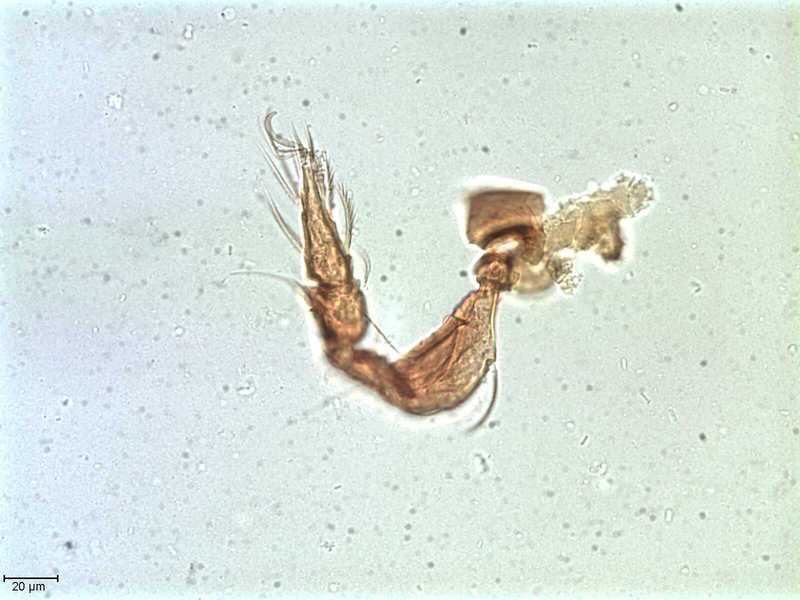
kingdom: Animalia
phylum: Arthropoda
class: Arachnida
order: Sarcoptiformes
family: Tegoribatidae
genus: Plakoribates
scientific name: Plakoribates multicuspidatus
